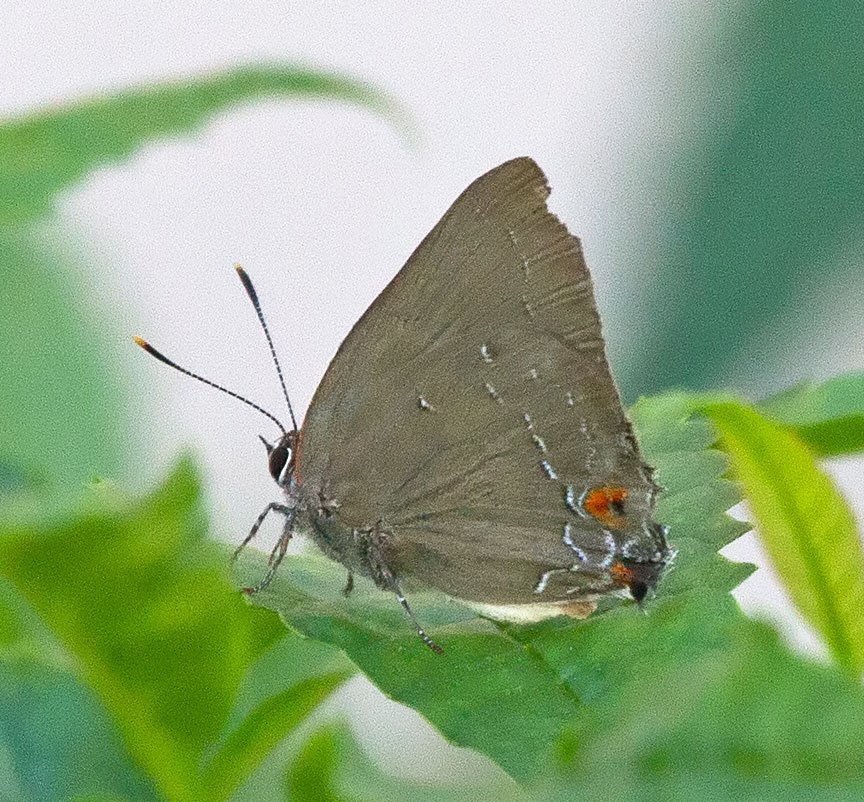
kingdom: Animalia
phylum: Arthropoda
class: Insecta
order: Lepidoptera
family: Lycaenidae
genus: Satyrium
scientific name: Satyrium
